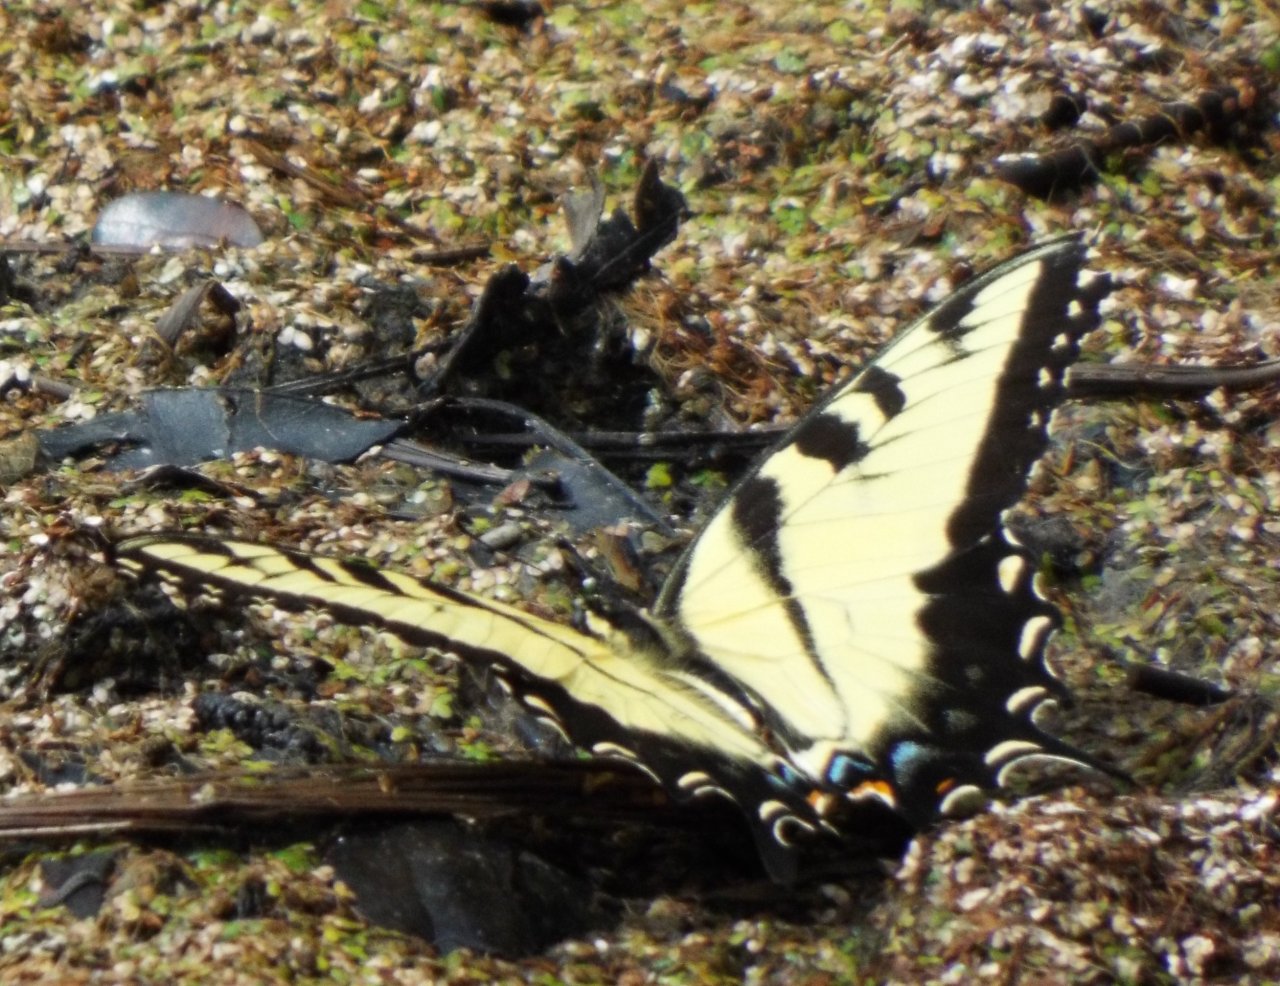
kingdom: Animalia
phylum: Arthropoda
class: Insecta
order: Lepidoptera
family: Papilionidae
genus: Pterourus
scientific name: Pterourus glaucus
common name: Eastern Tiger Swallowtail
